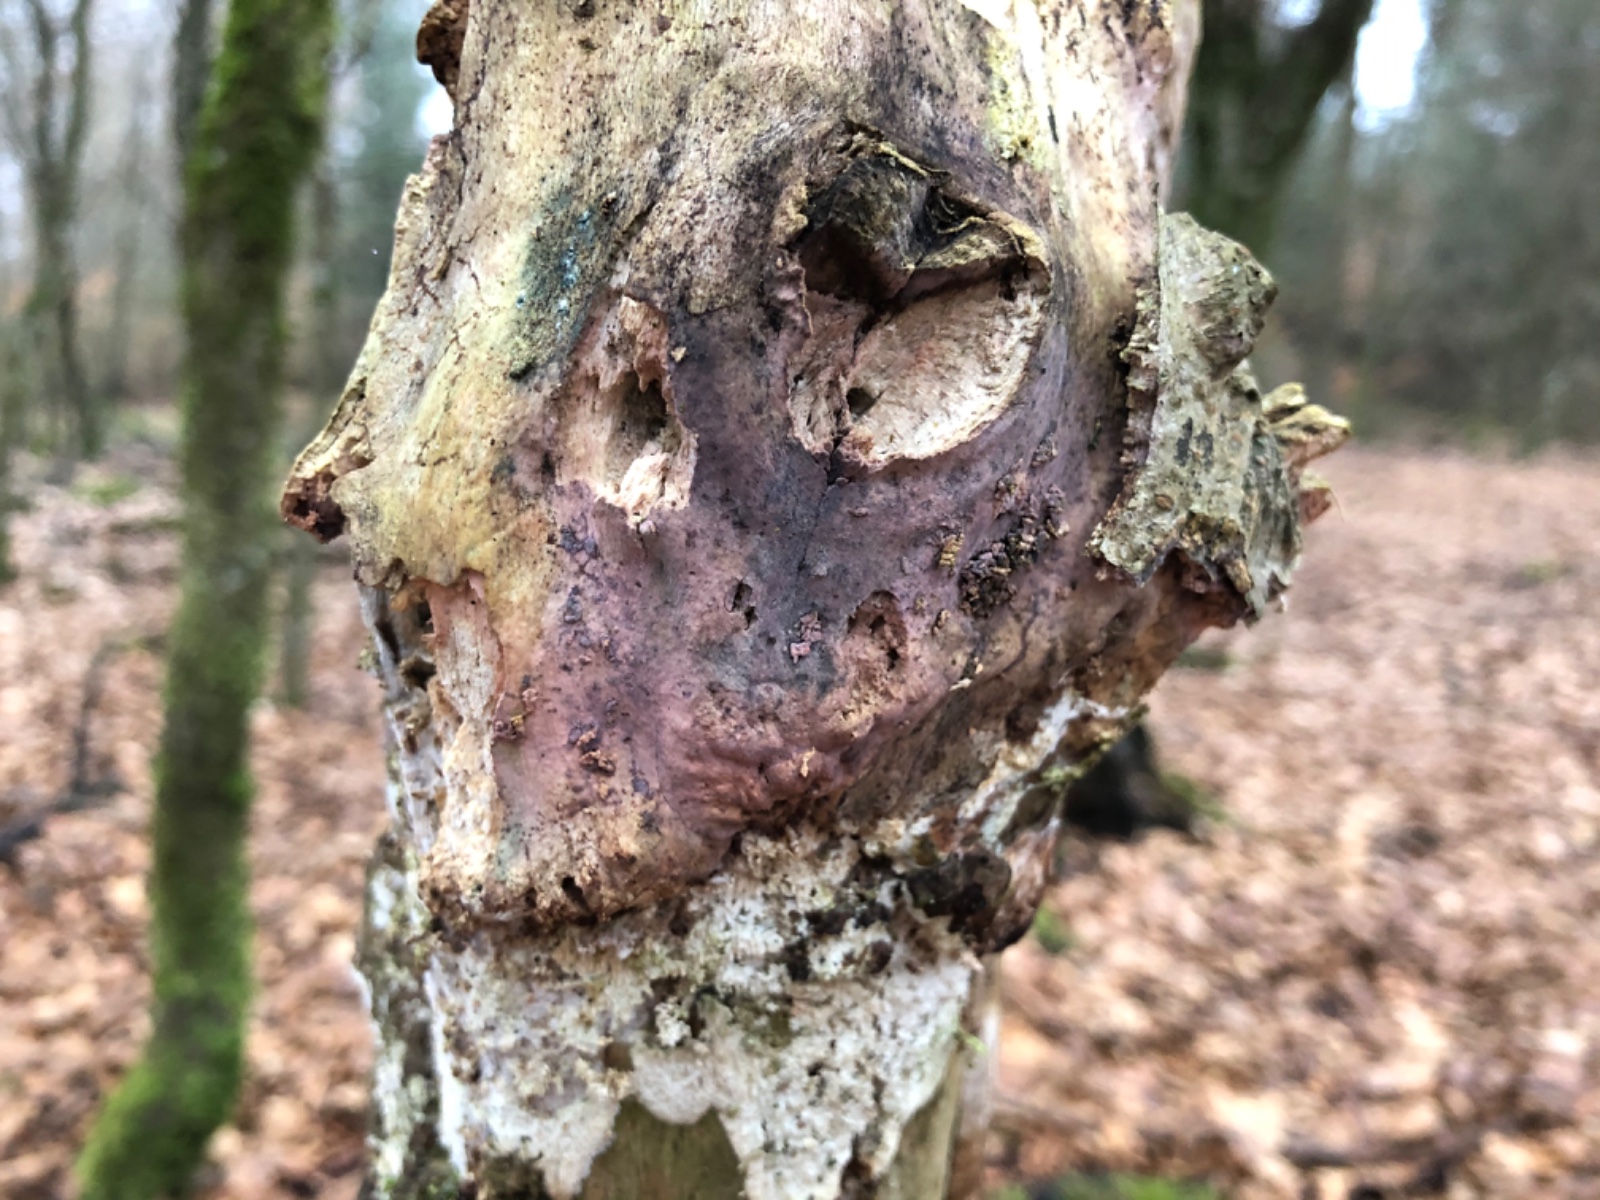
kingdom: Fungi
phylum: Basidiomycota
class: Agaricomycetes
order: Cantharellales
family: Tulasnellaceae
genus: Tulasnella
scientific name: Tulasnella violea
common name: violet ballonhinde
